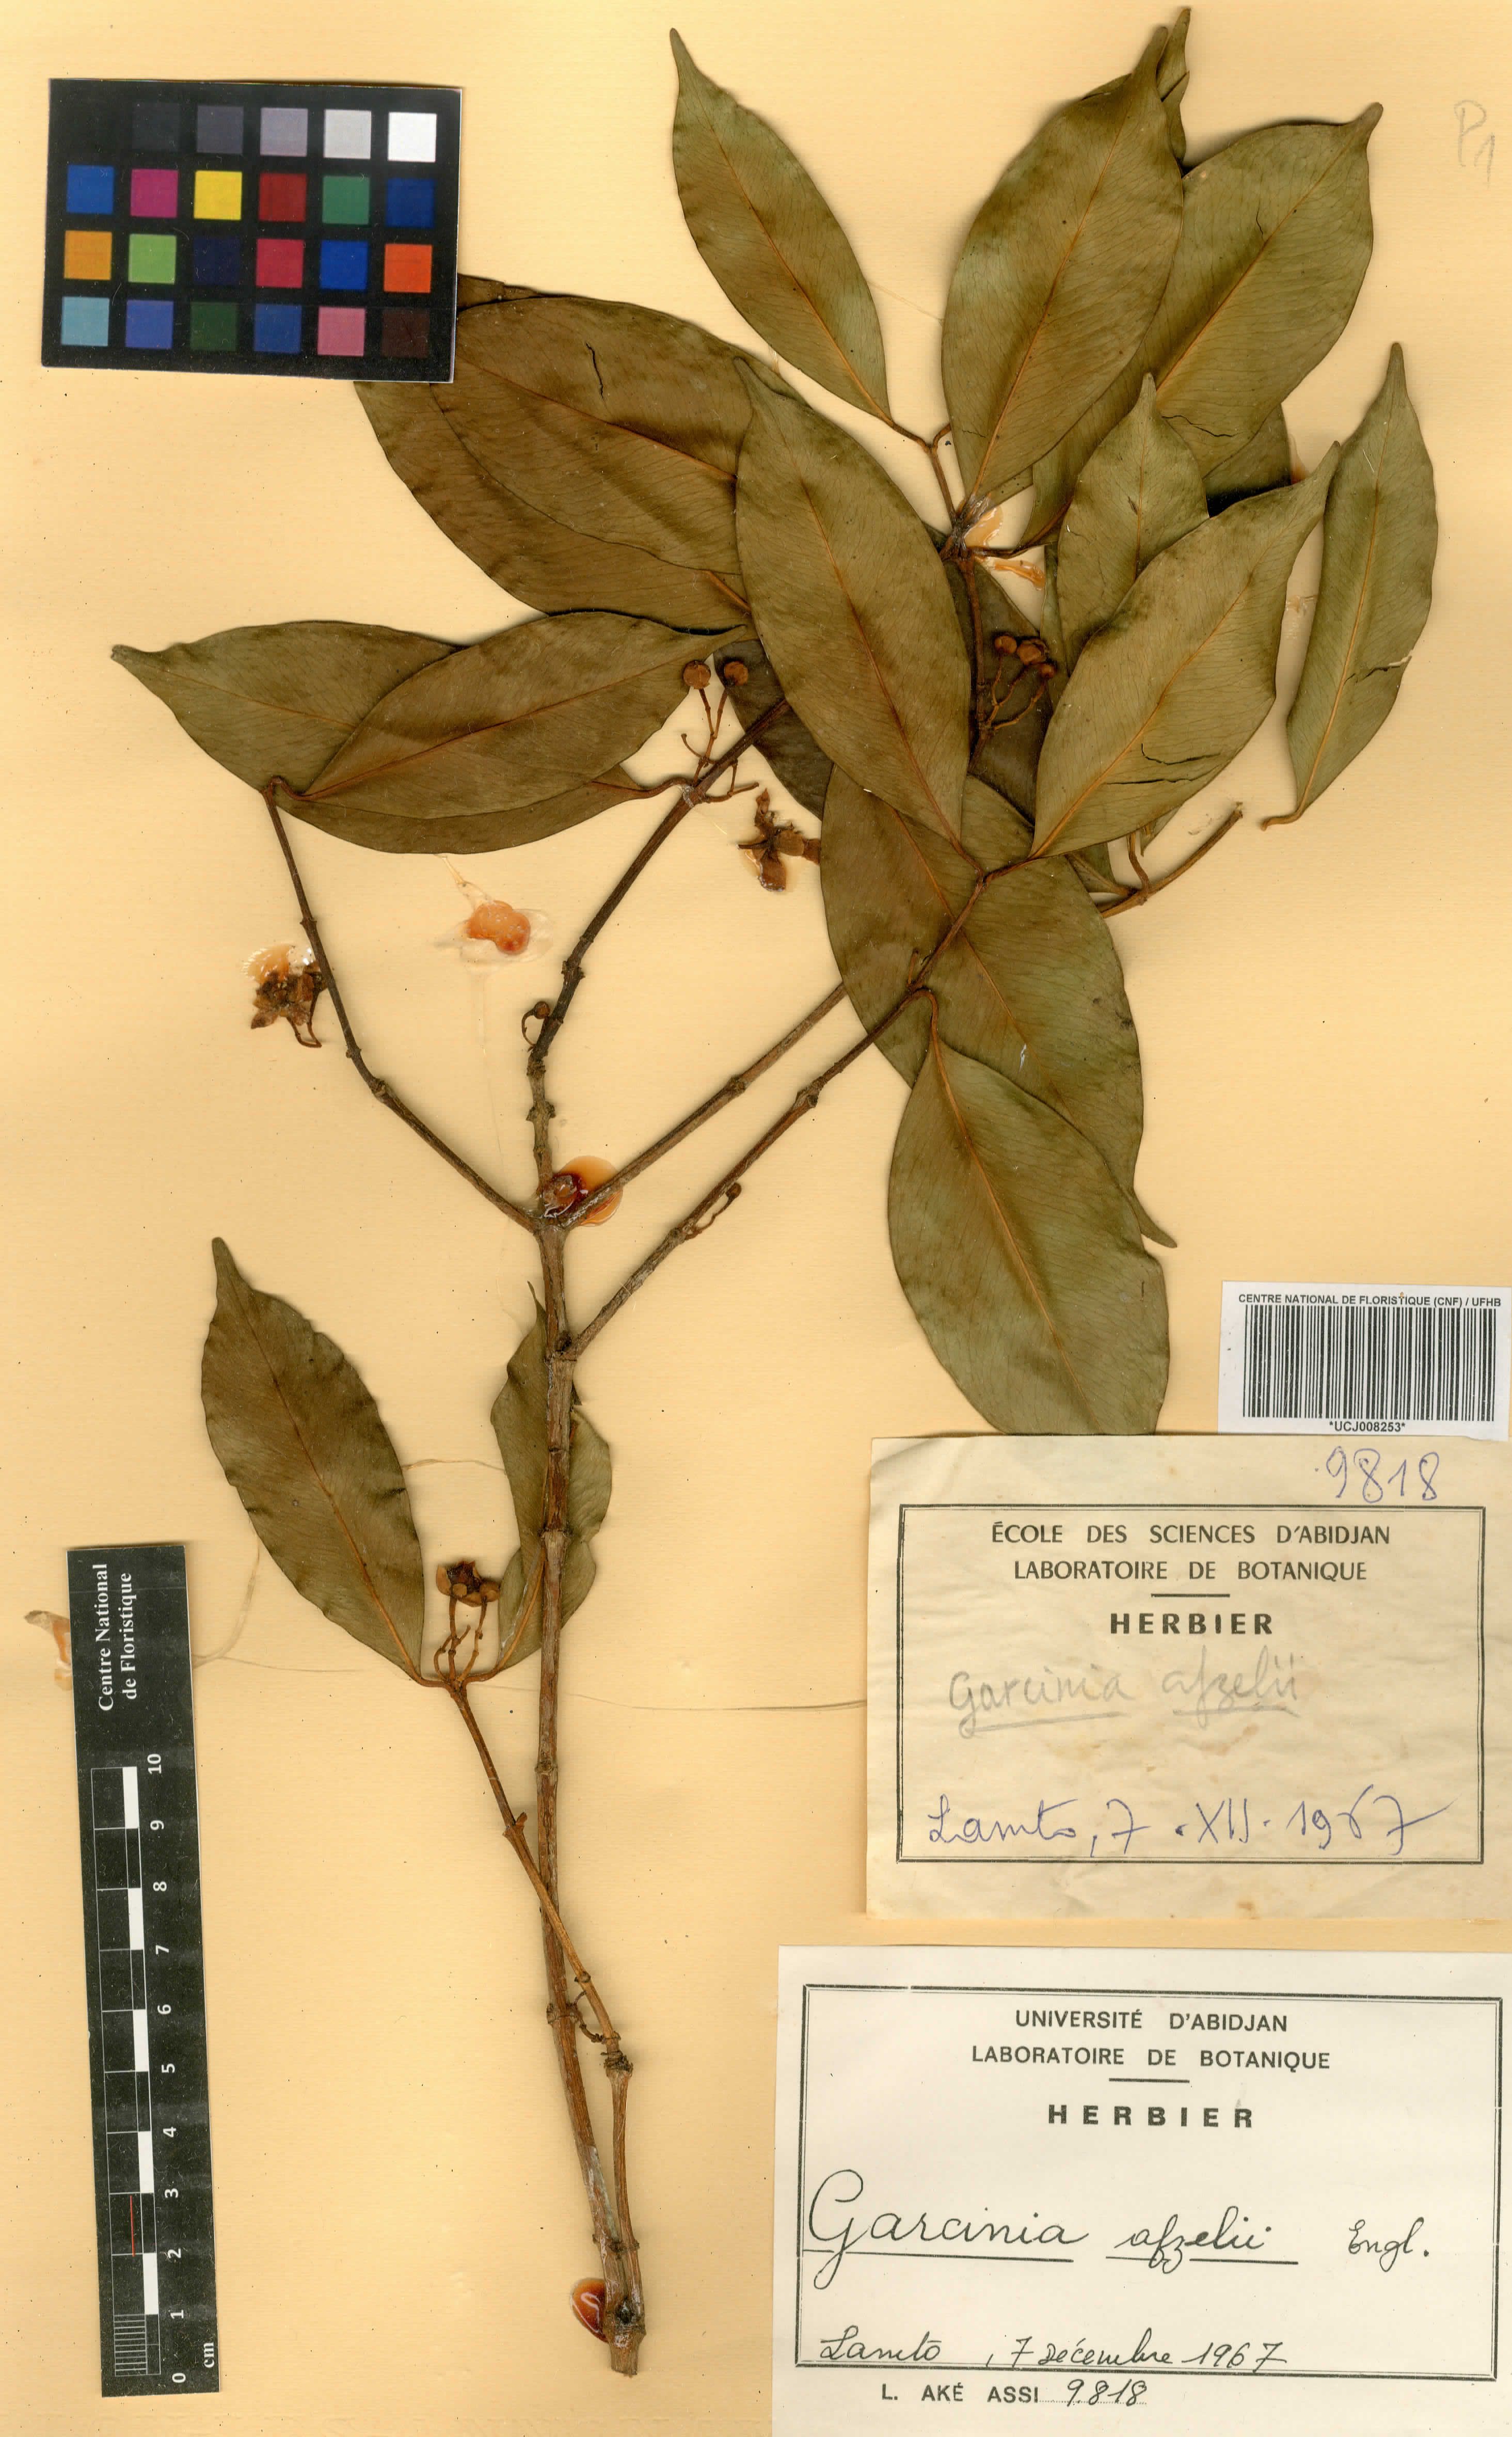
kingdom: Plantae
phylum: Tracheophyta
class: Magnoliopsida
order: Malpighiales
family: Clusiaceae
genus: Garcinia
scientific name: Garcinia afzelii
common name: Bitter-kola
